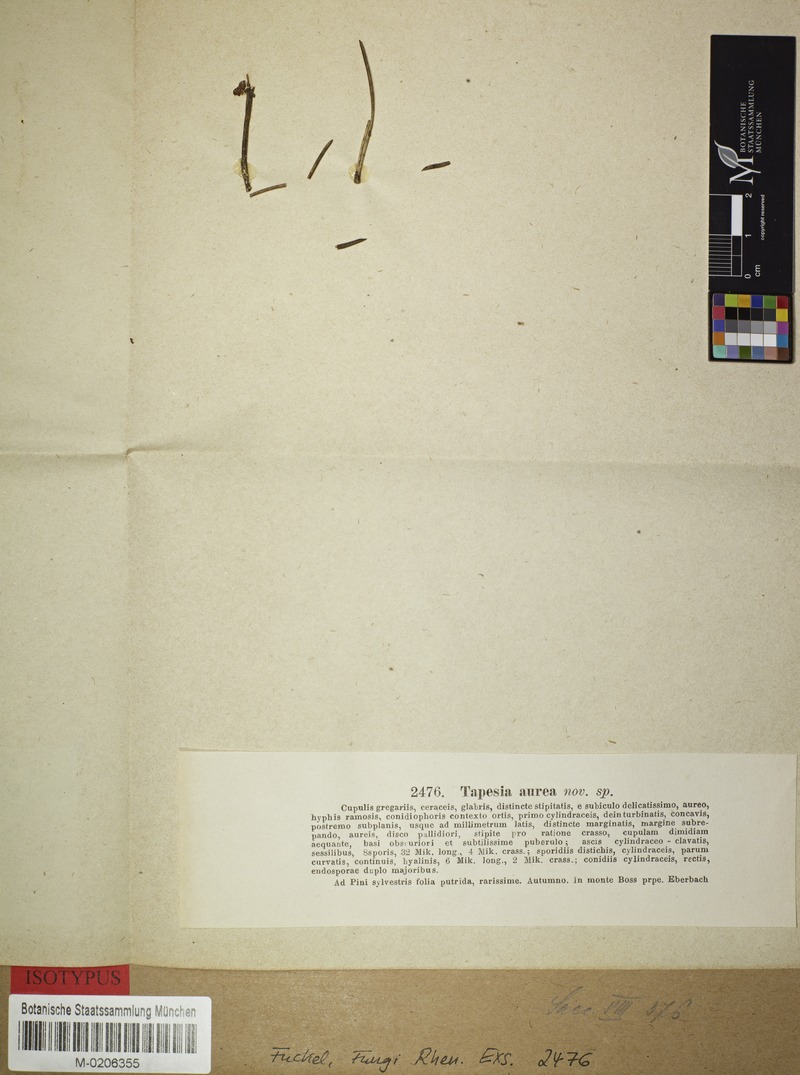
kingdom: Fungi
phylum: Ascomycota
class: Leotiomycetes
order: Helotiales
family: Calloriaceae
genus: Micropodia
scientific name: Micropodia aurea
